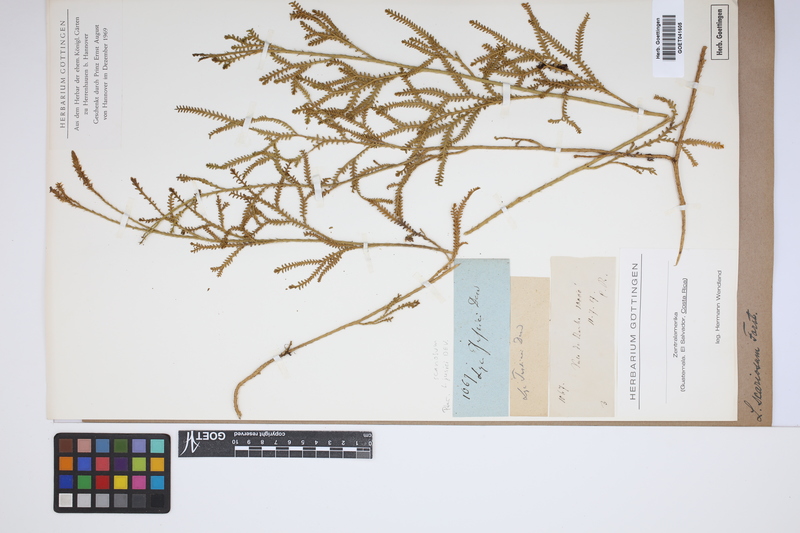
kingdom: Plantae
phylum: Tracheophyta
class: Lycopodiopsida
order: Lycopodiales
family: Lycopodiaceae
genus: Diphasium
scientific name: Diphasium scariosum
